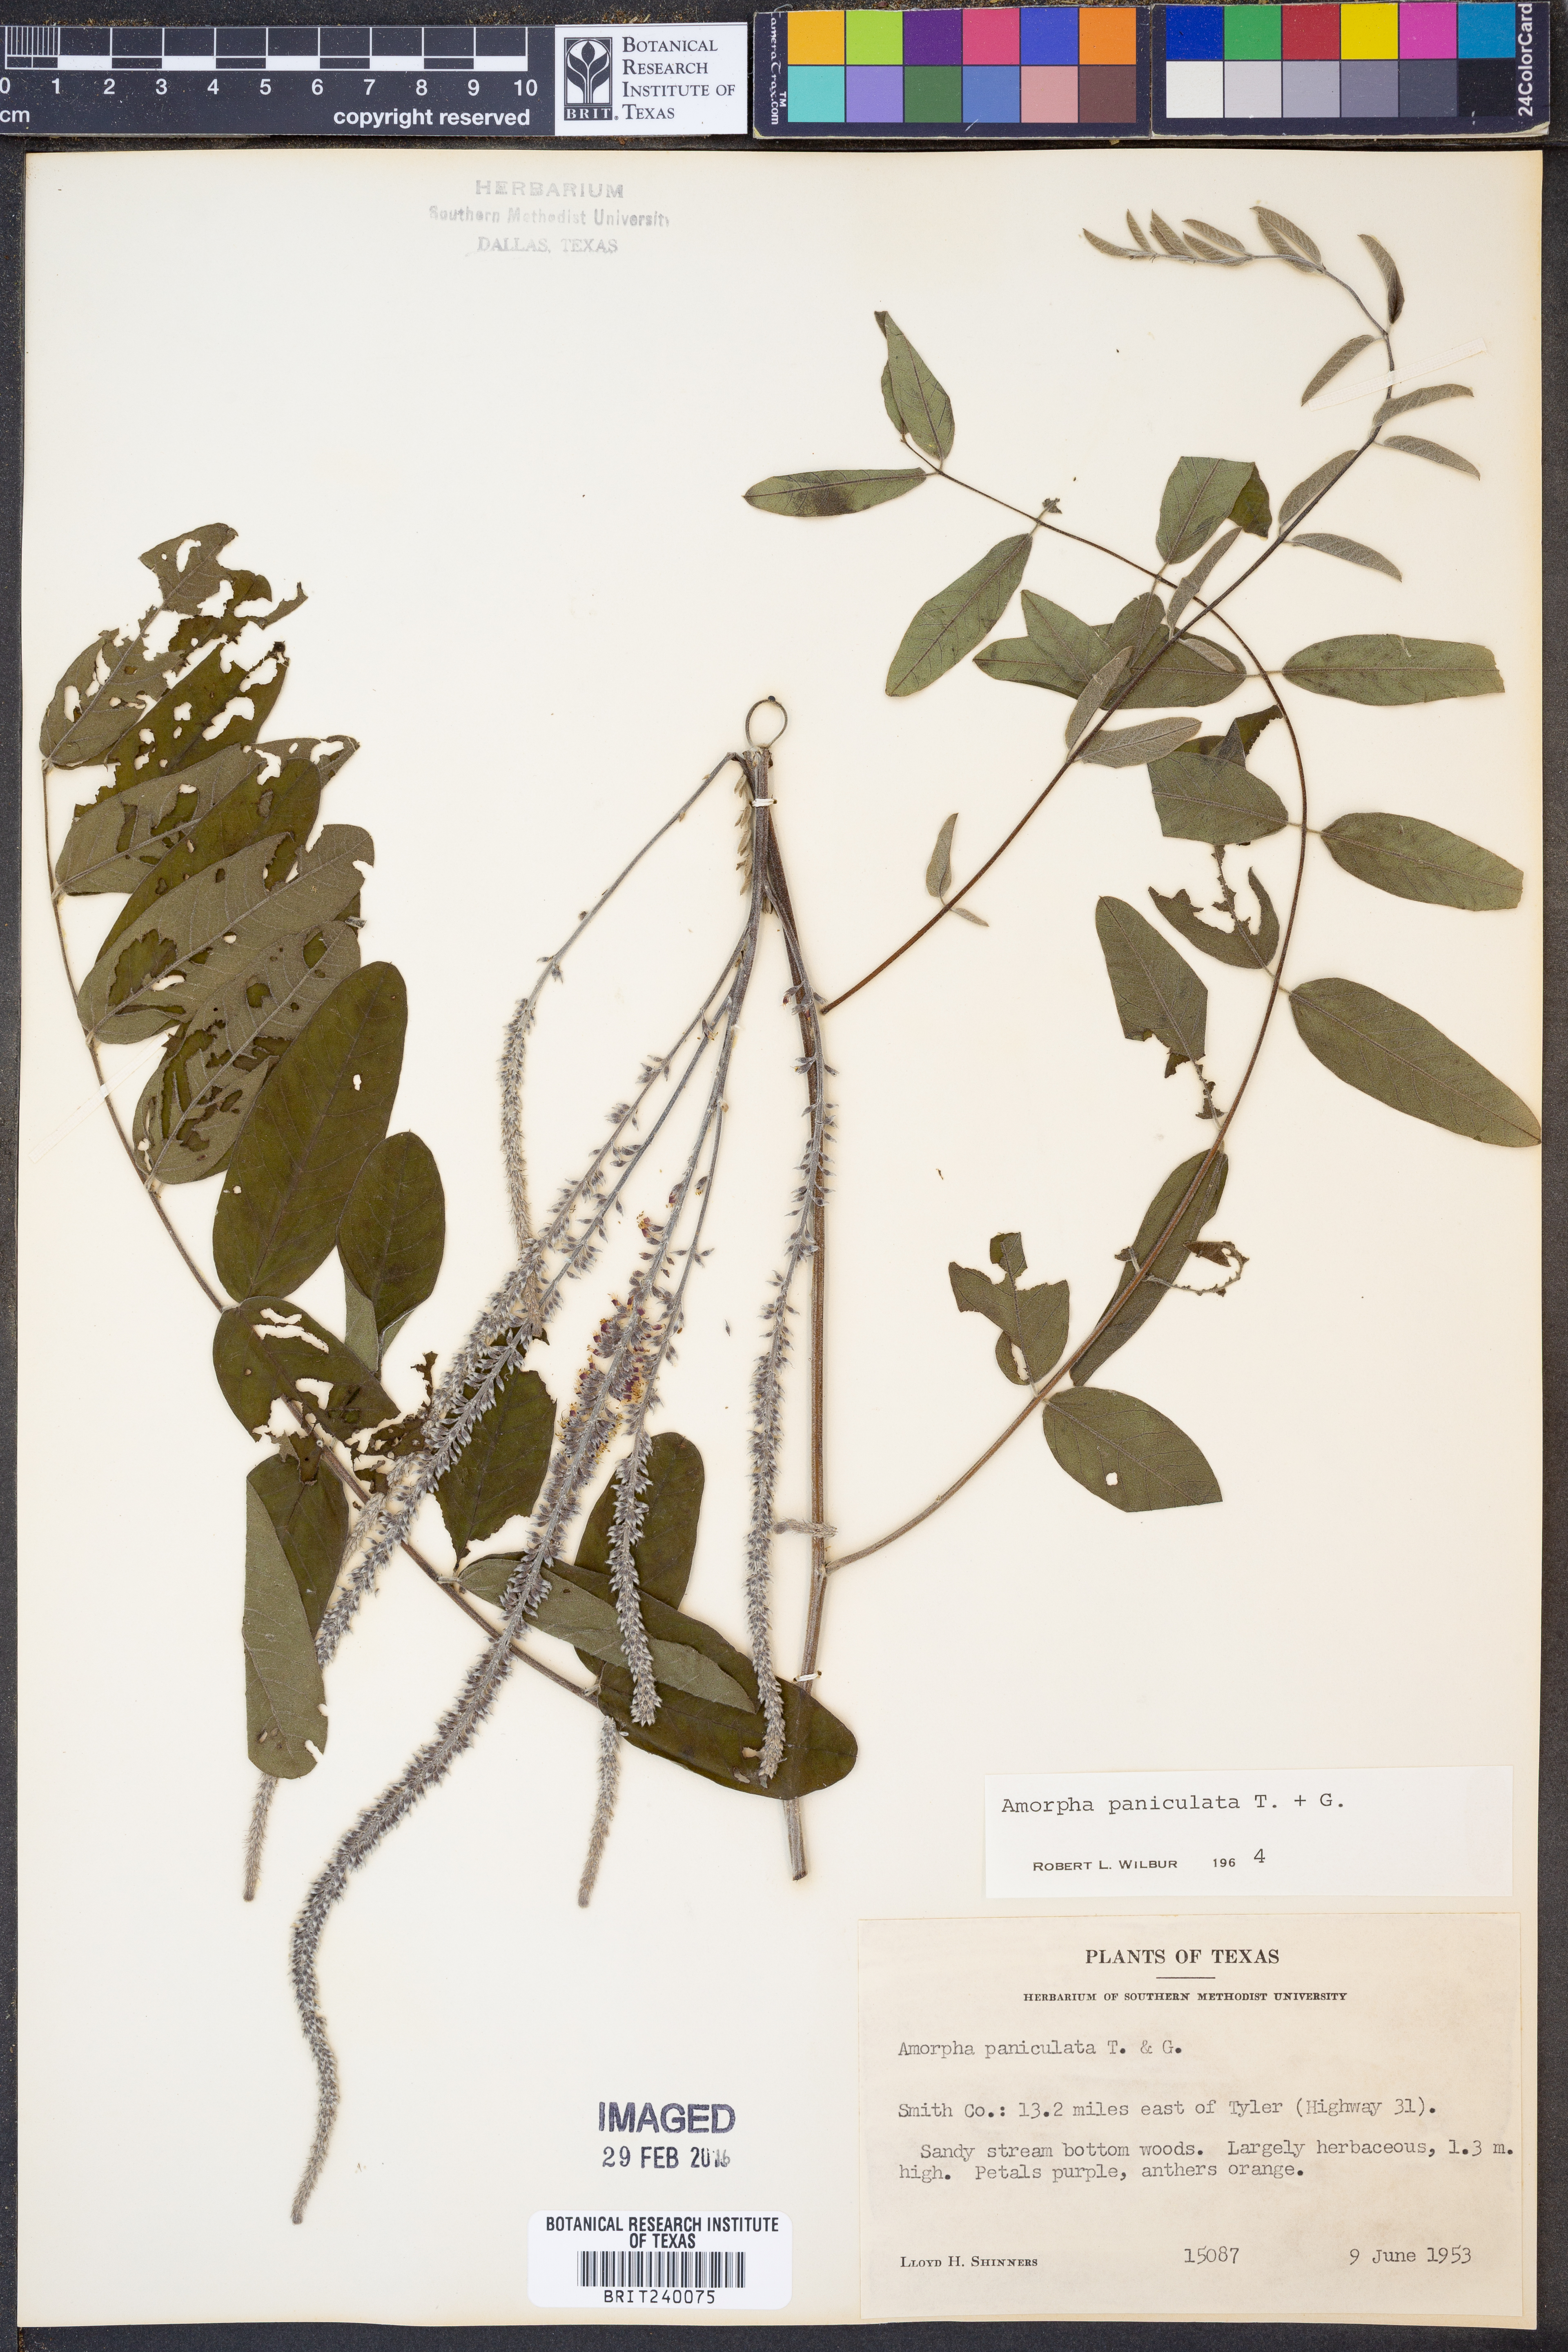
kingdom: Plantae
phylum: Tracheophyta
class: Magnoliopsida
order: Fabales
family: Fabaceae
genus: Amorpha
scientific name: Amorpha paniculata
